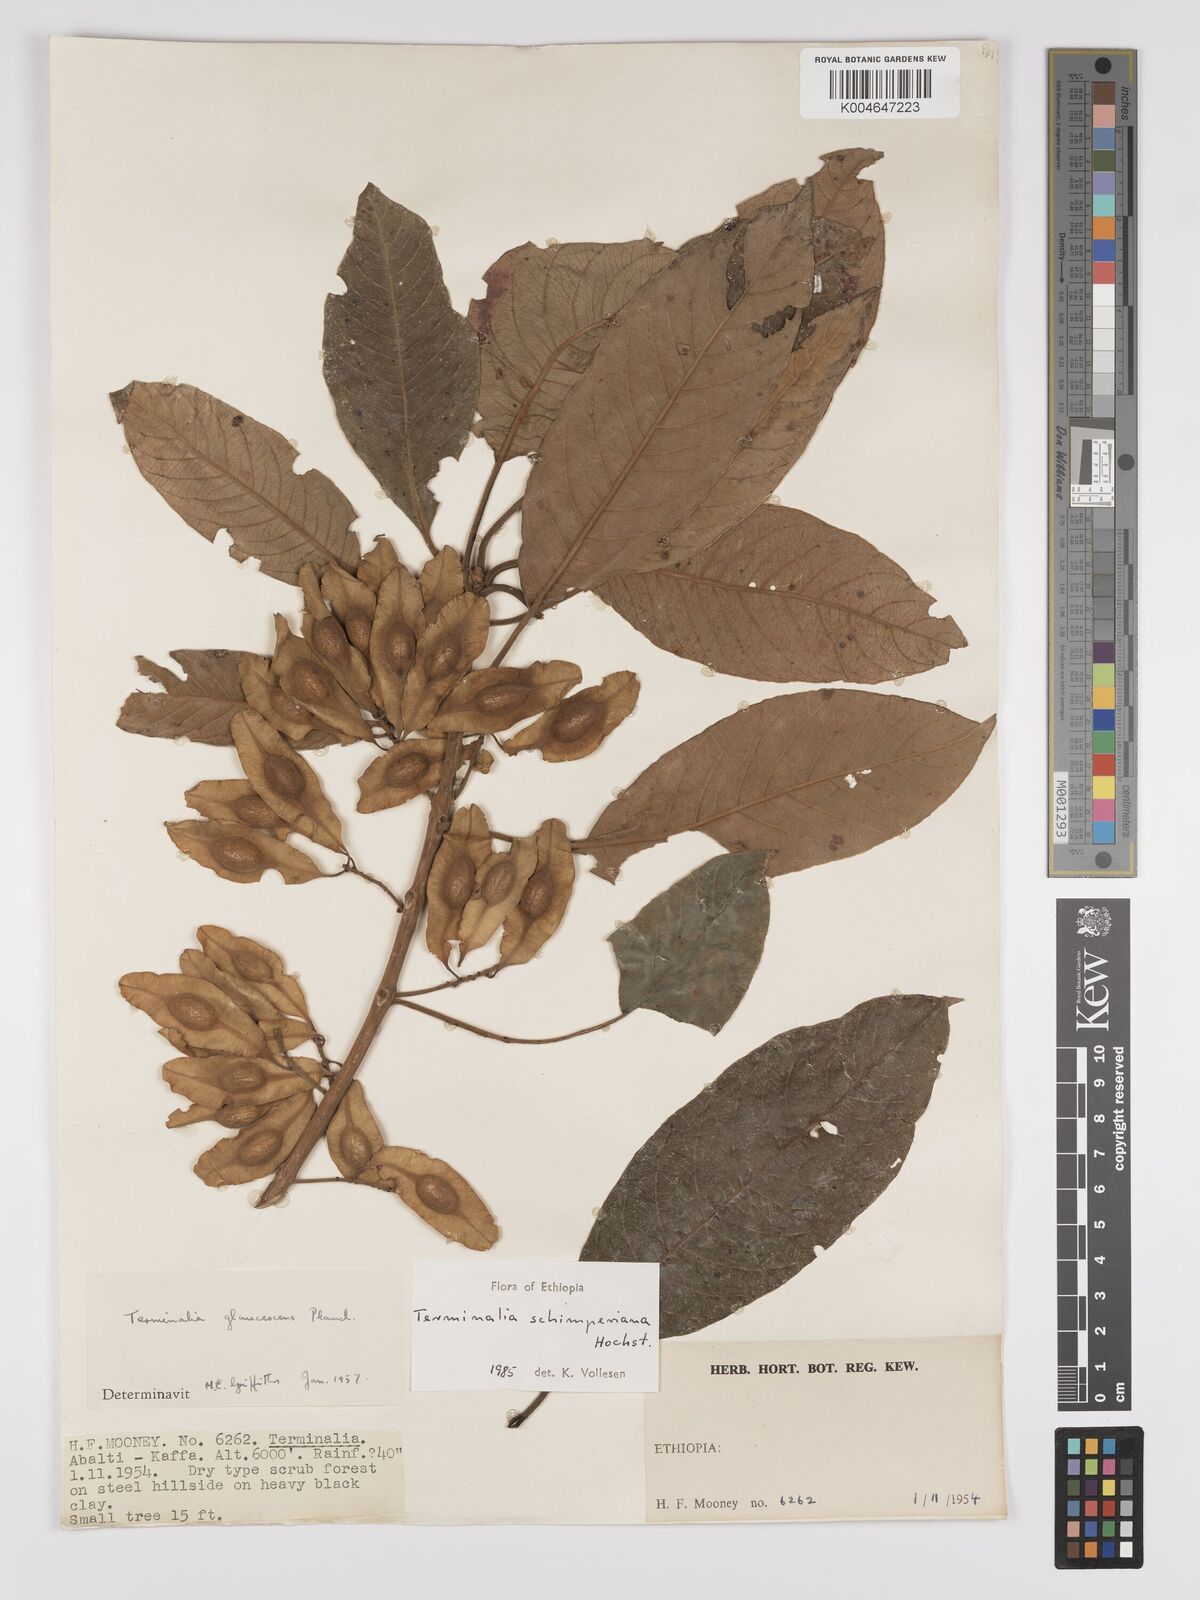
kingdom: Plantae
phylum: Tracheophyta
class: Magnoliopsida
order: Myrtales
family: Combretaceae
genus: Terminalia
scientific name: Terminalia schimperiana
